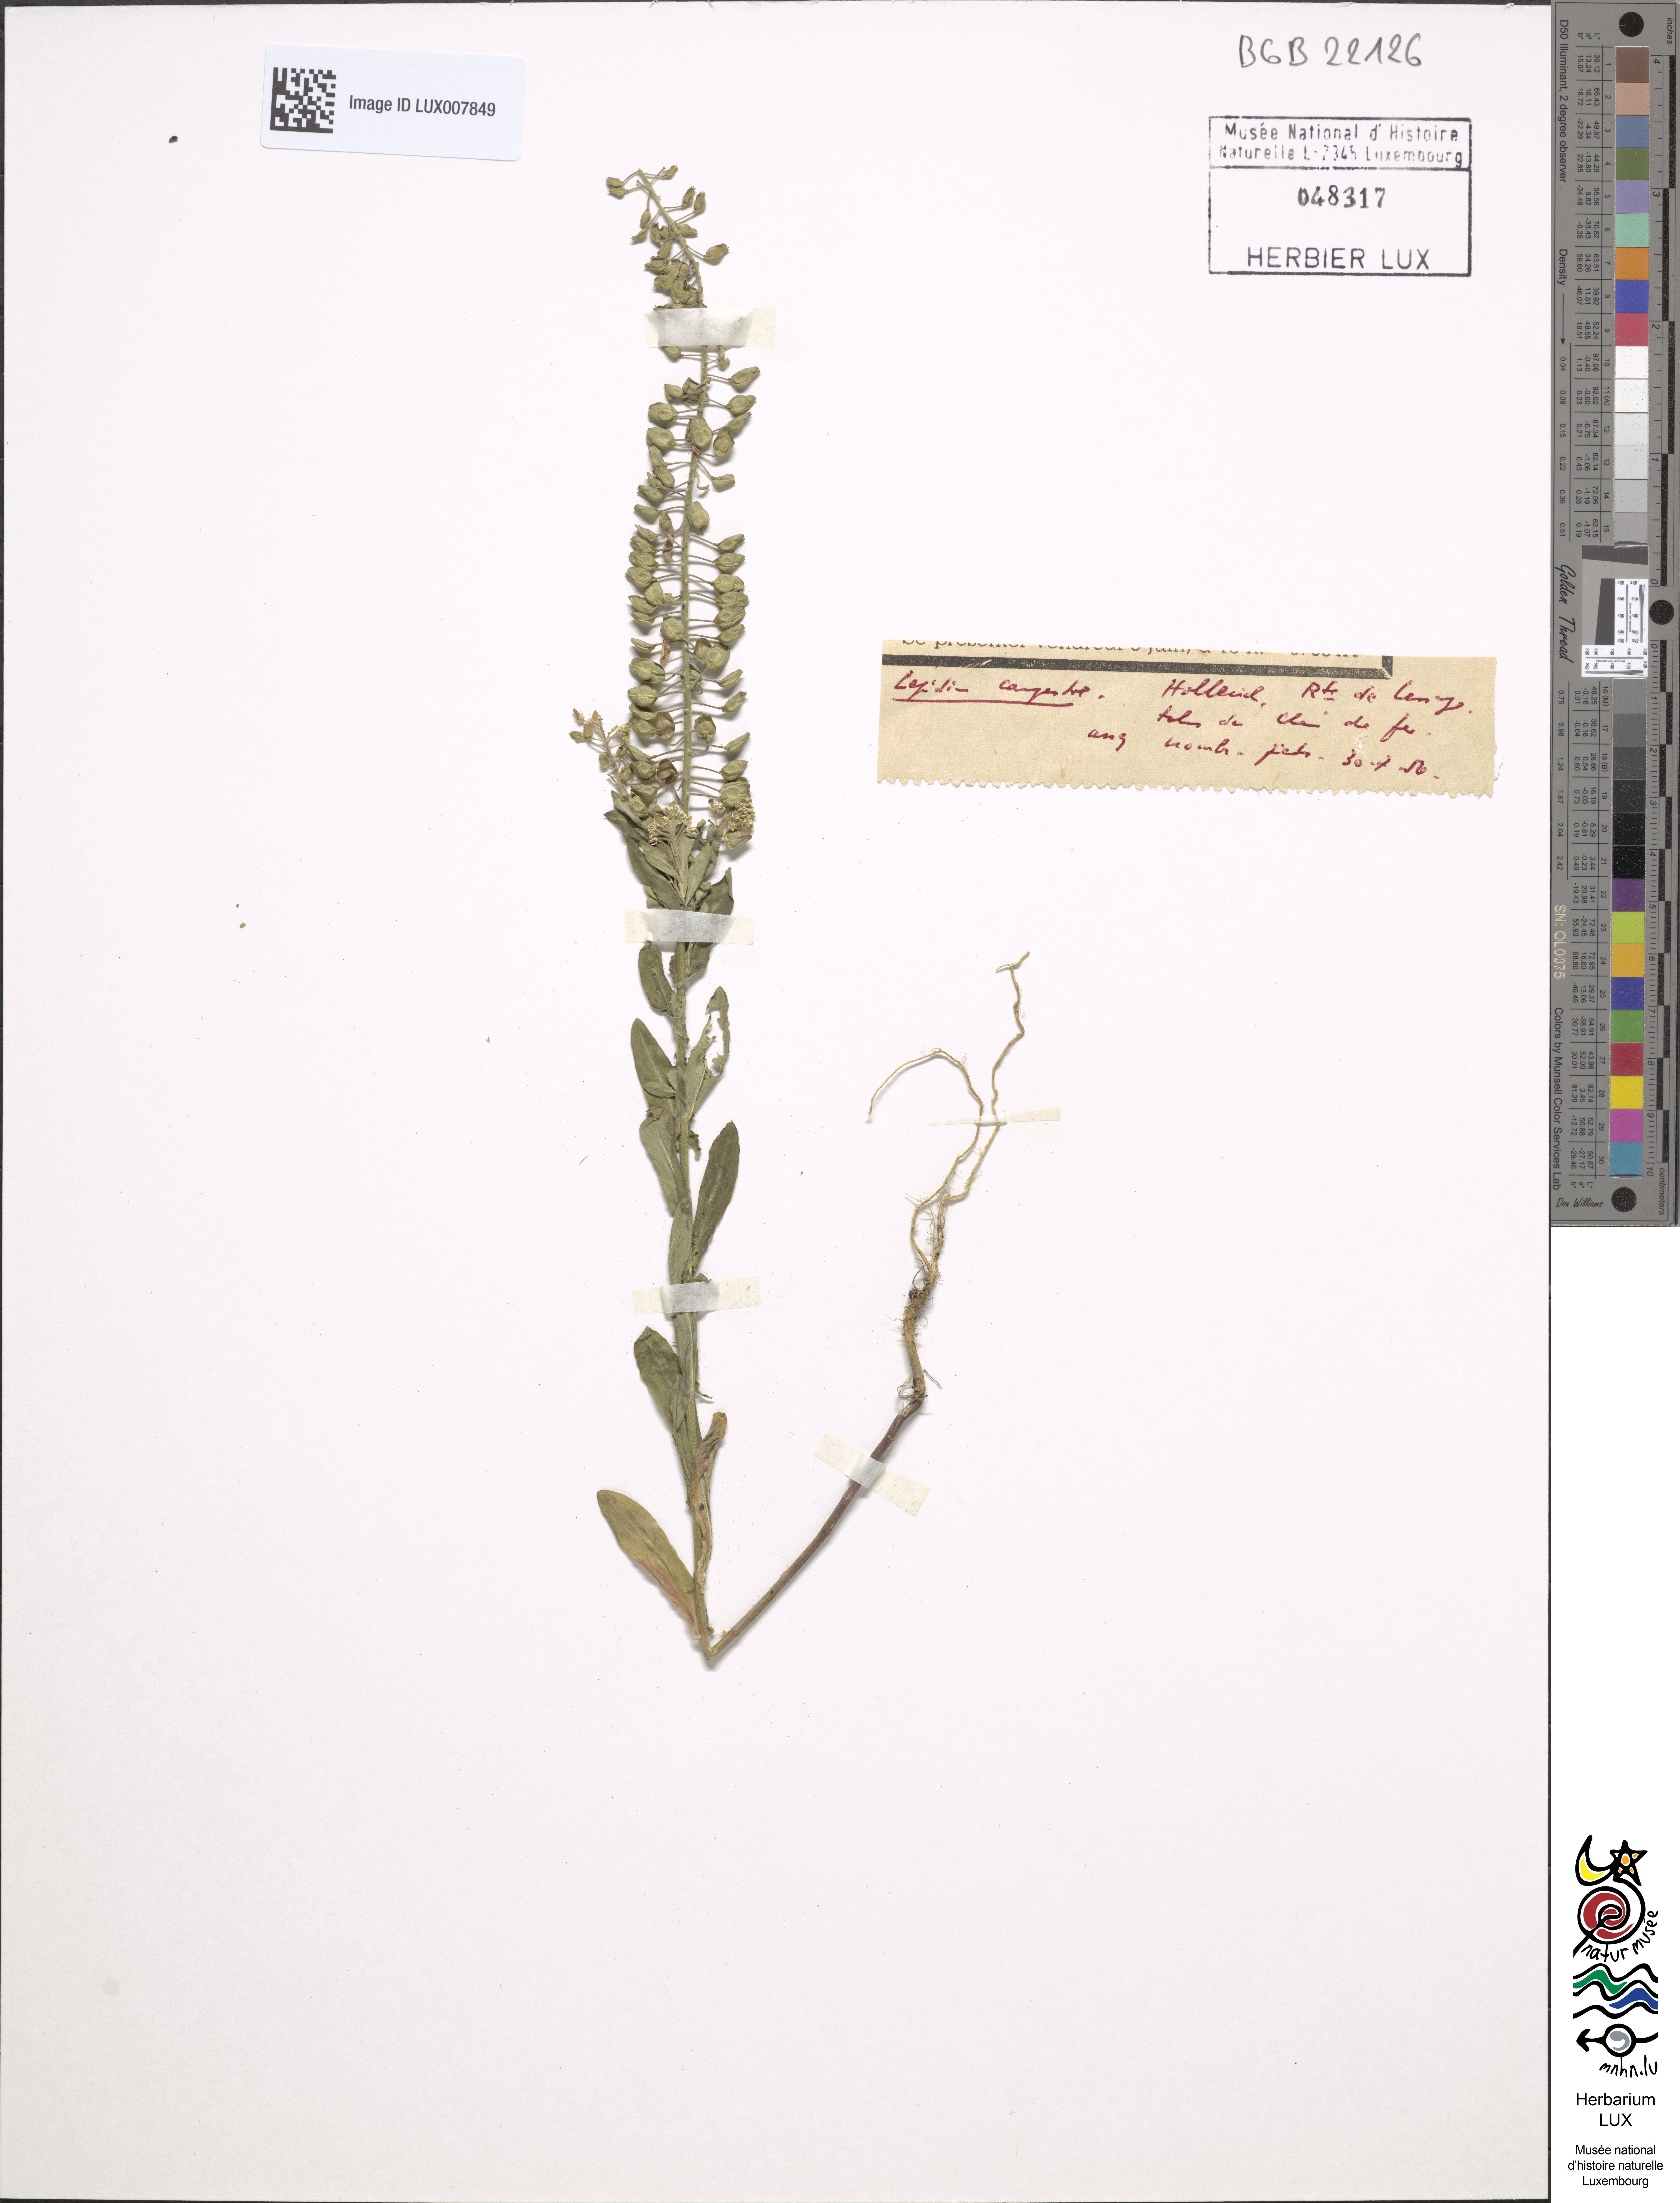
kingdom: Plantae
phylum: Tracheophyta
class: Magnoliopsida
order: Brassicales
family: Brassicaceae
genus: Lepidium
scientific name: Lepidium campestre
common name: Field pepperwort
